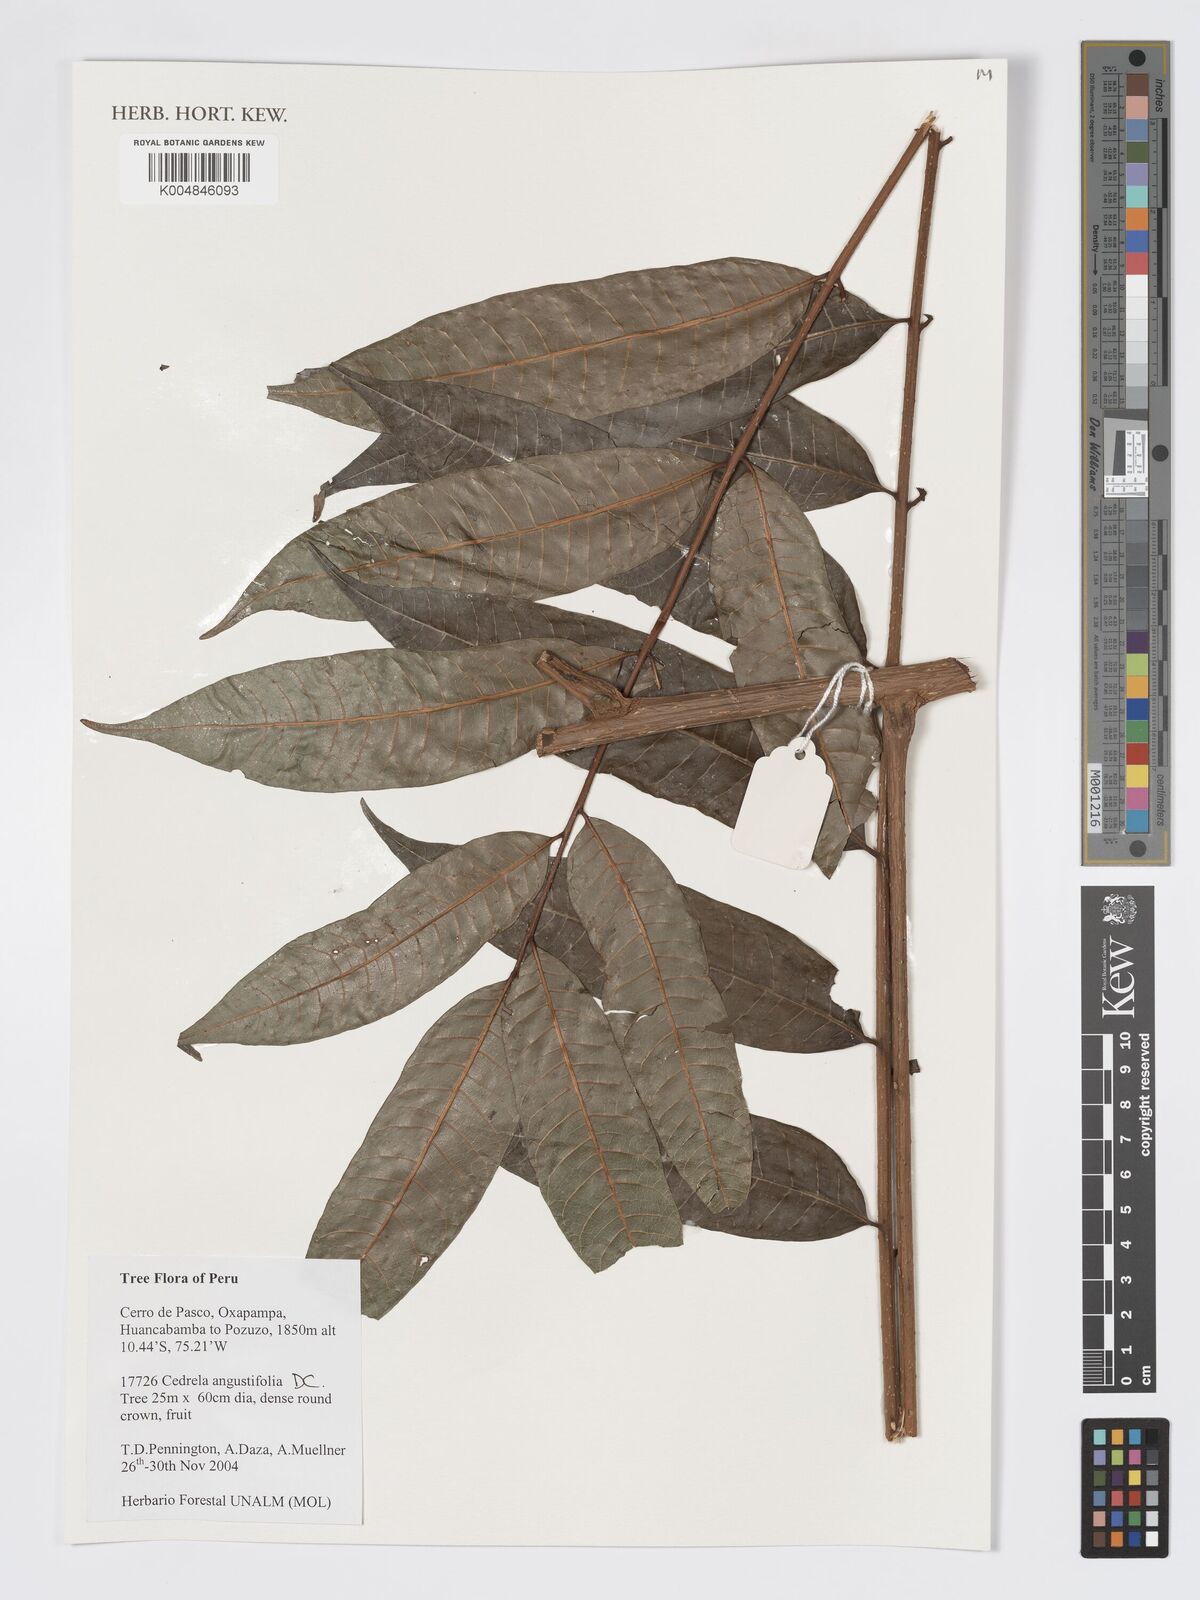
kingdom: Plantae
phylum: Tracheophyta
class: Magnoliopsida
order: Sapindales
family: Meliaceae
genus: Cedrela
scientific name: Cedrela odorata
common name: Red cedar
